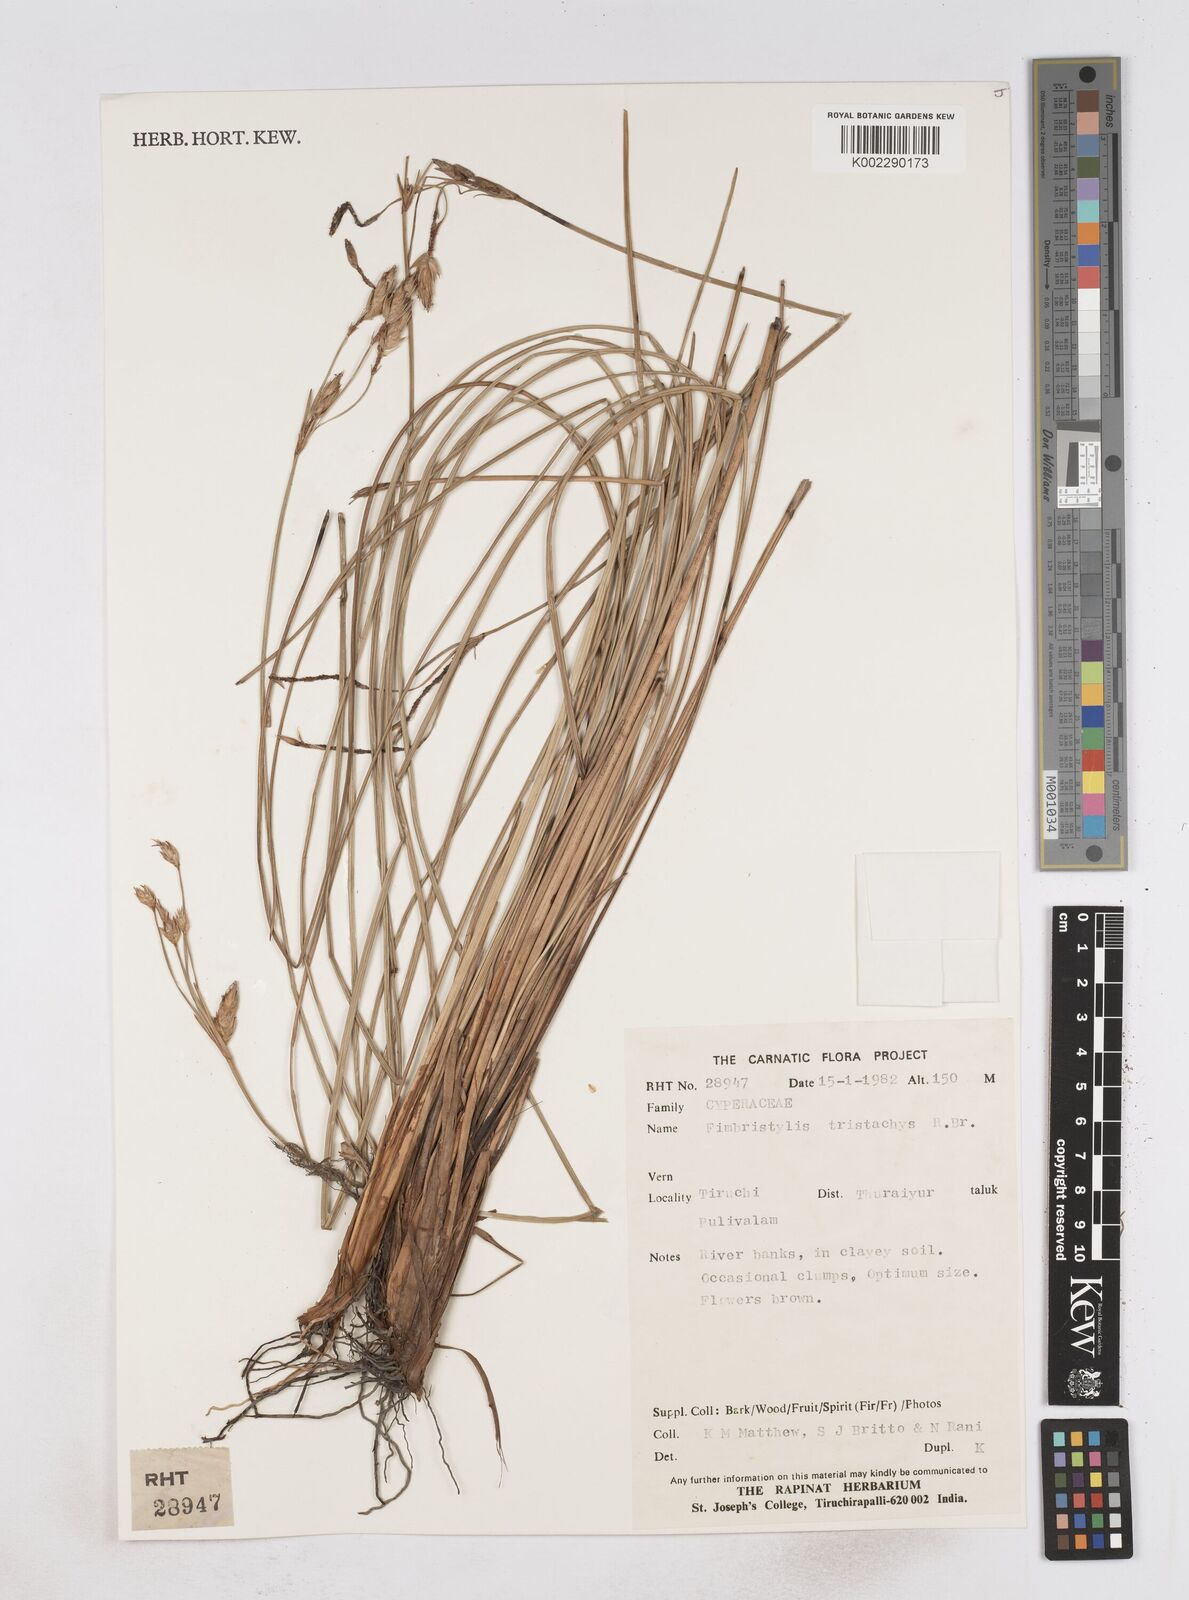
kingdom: Plantae
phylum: Tracheophyta
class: Liliopsida
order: Poales
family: Cyperaceae
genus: Fimbristylis
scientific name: Fimbristylis tristachya
